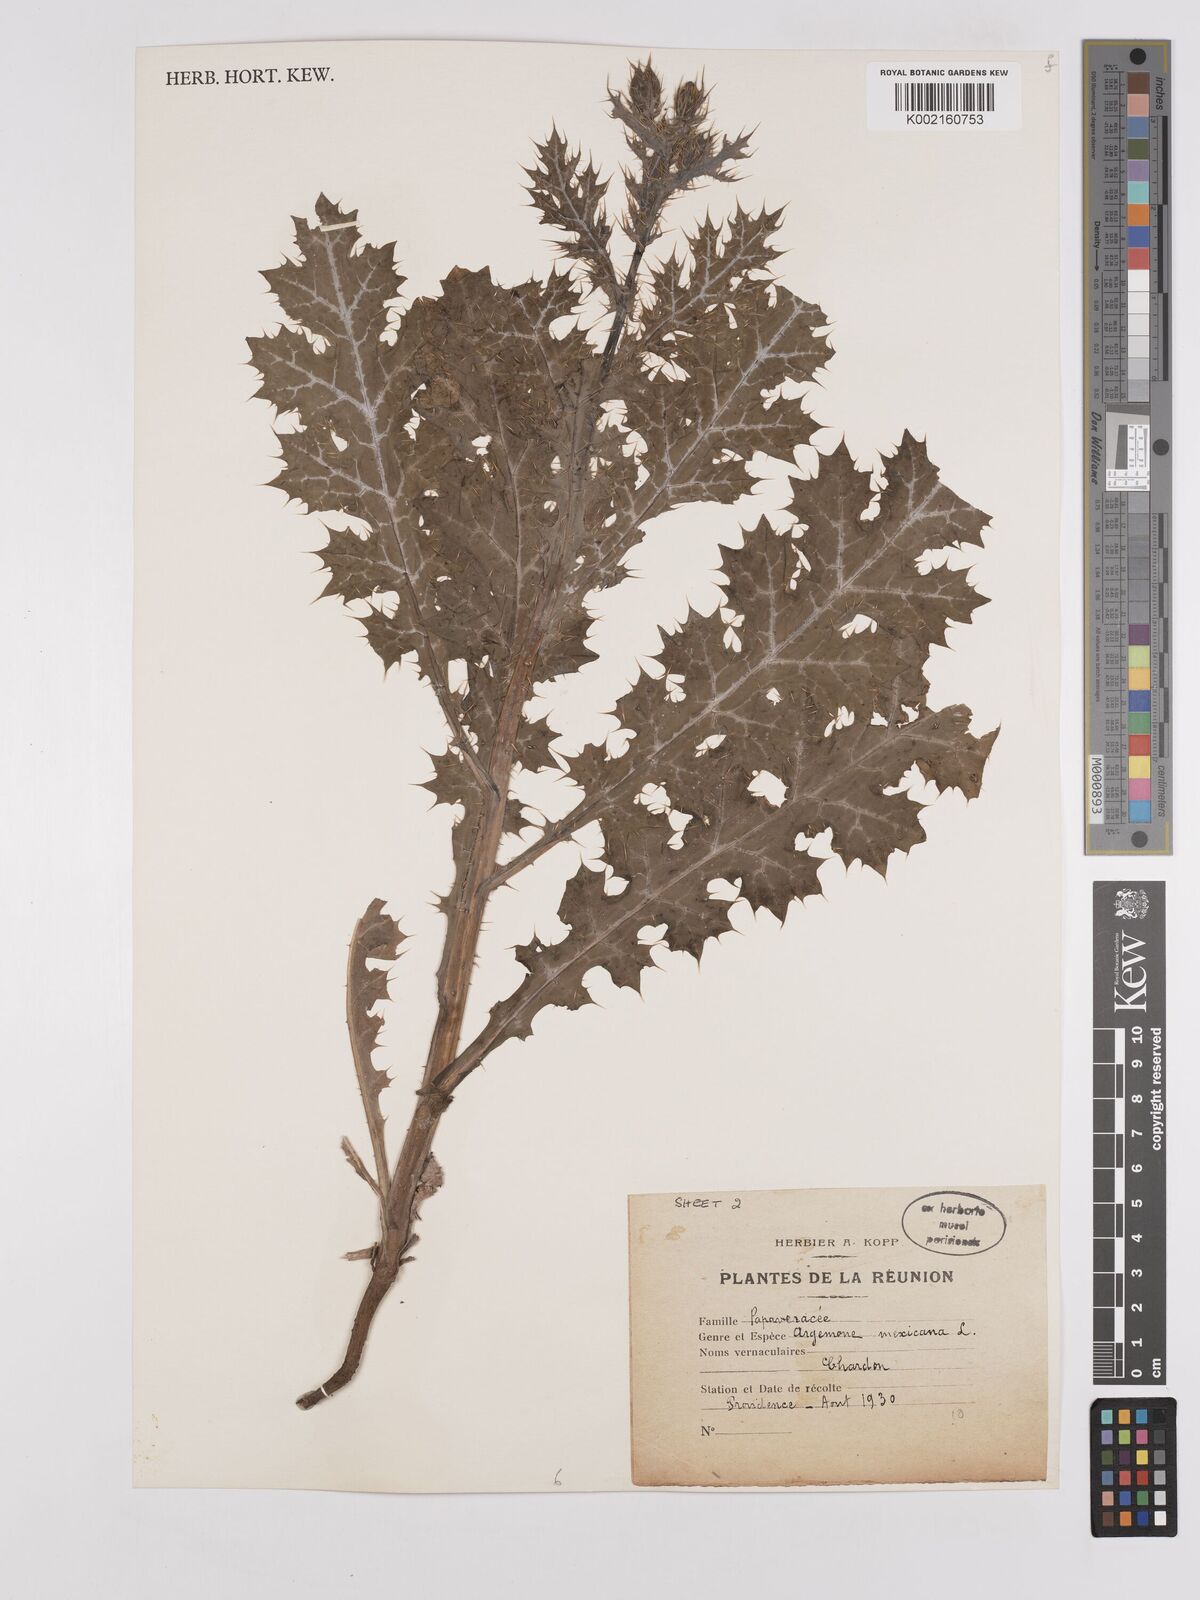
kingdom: Plantae
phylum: Tracheophyta
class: Magnoliopsida
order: Ranunculales
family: Papaveraceae
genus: Argemone
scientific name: Argemone mexicana
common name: Mexican poppy
